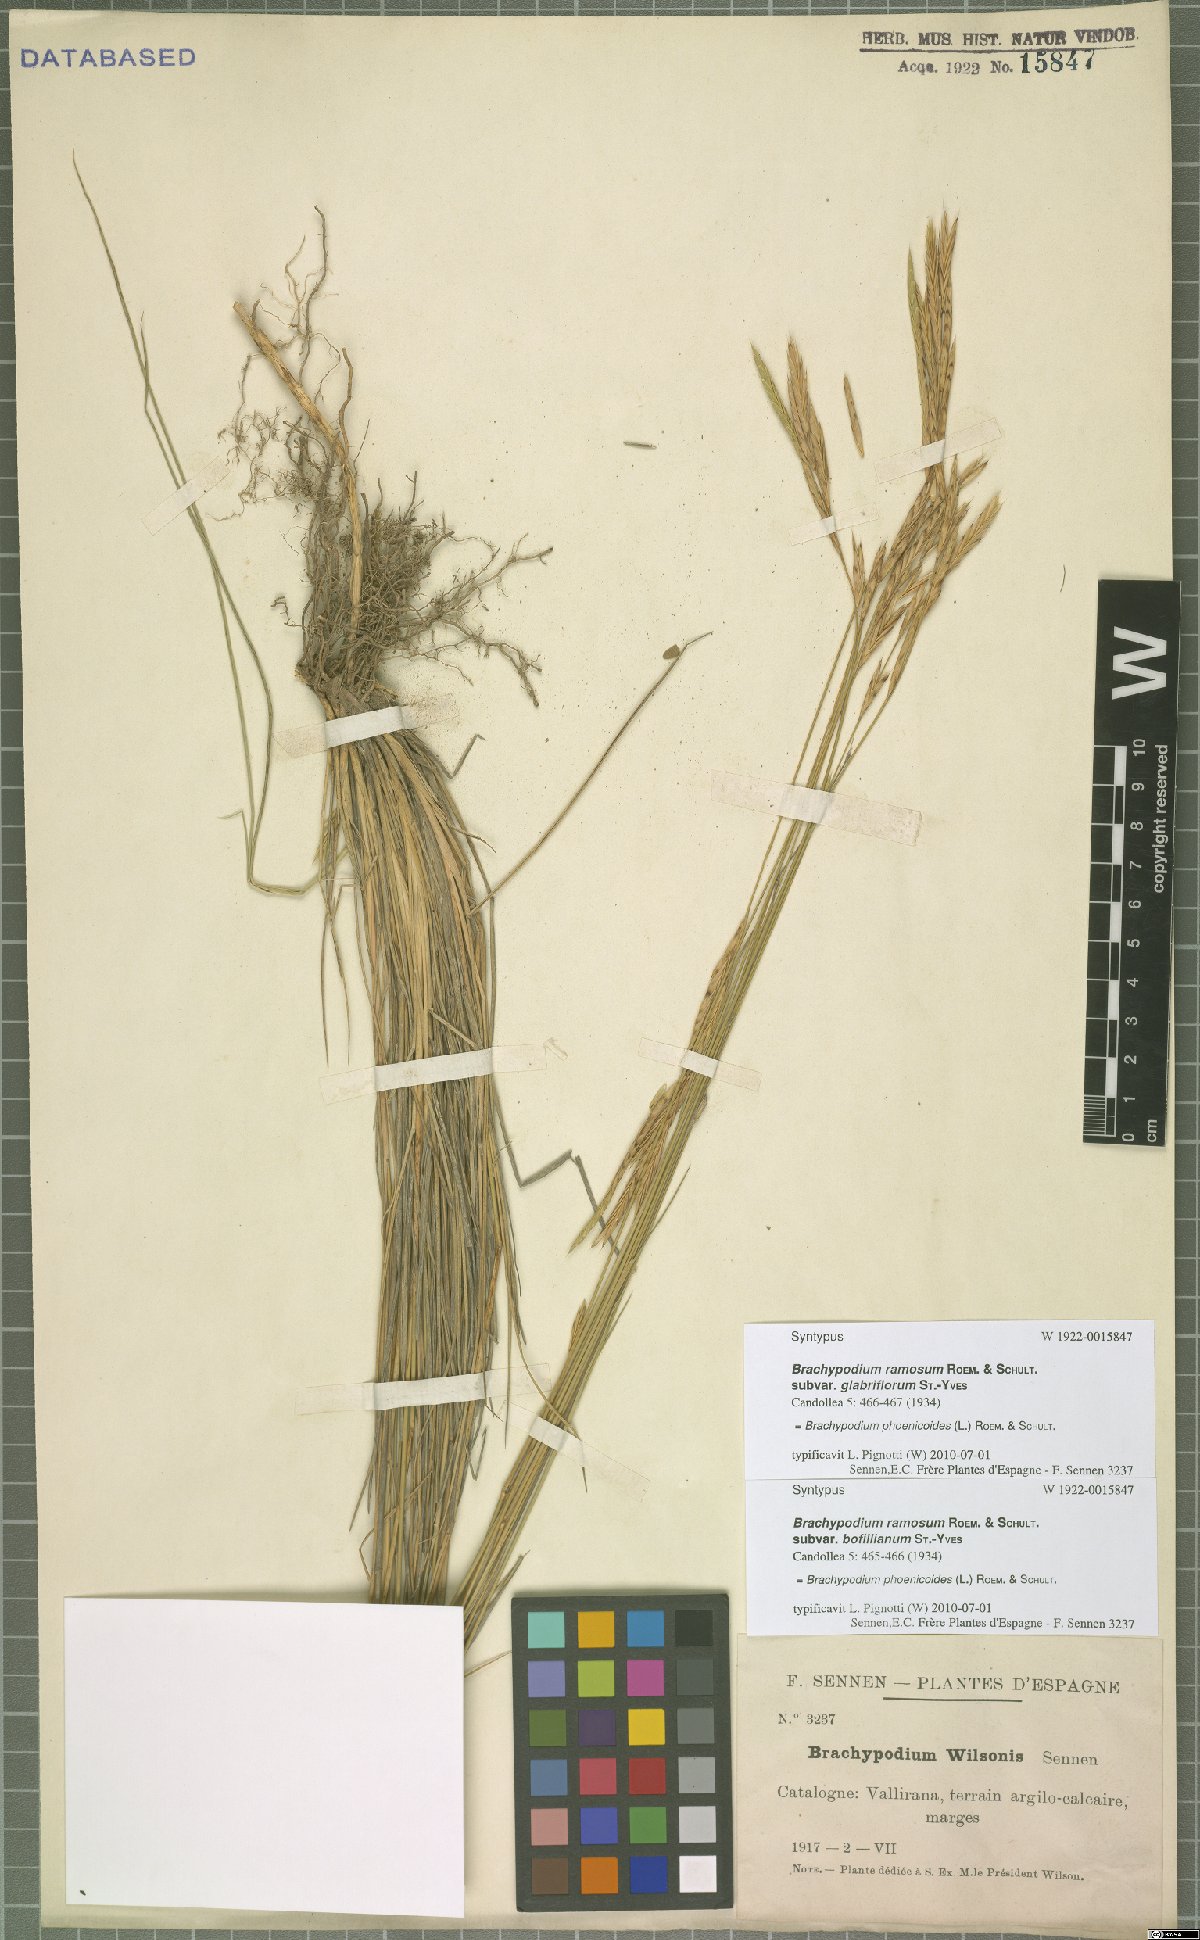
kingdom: Plantae
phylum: Tracheophyta
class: Liliopsida
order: Poales
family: Poaceae
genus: Brachypodium
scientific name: Brachypodium phoenicoides
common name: Thinleaf false brome
